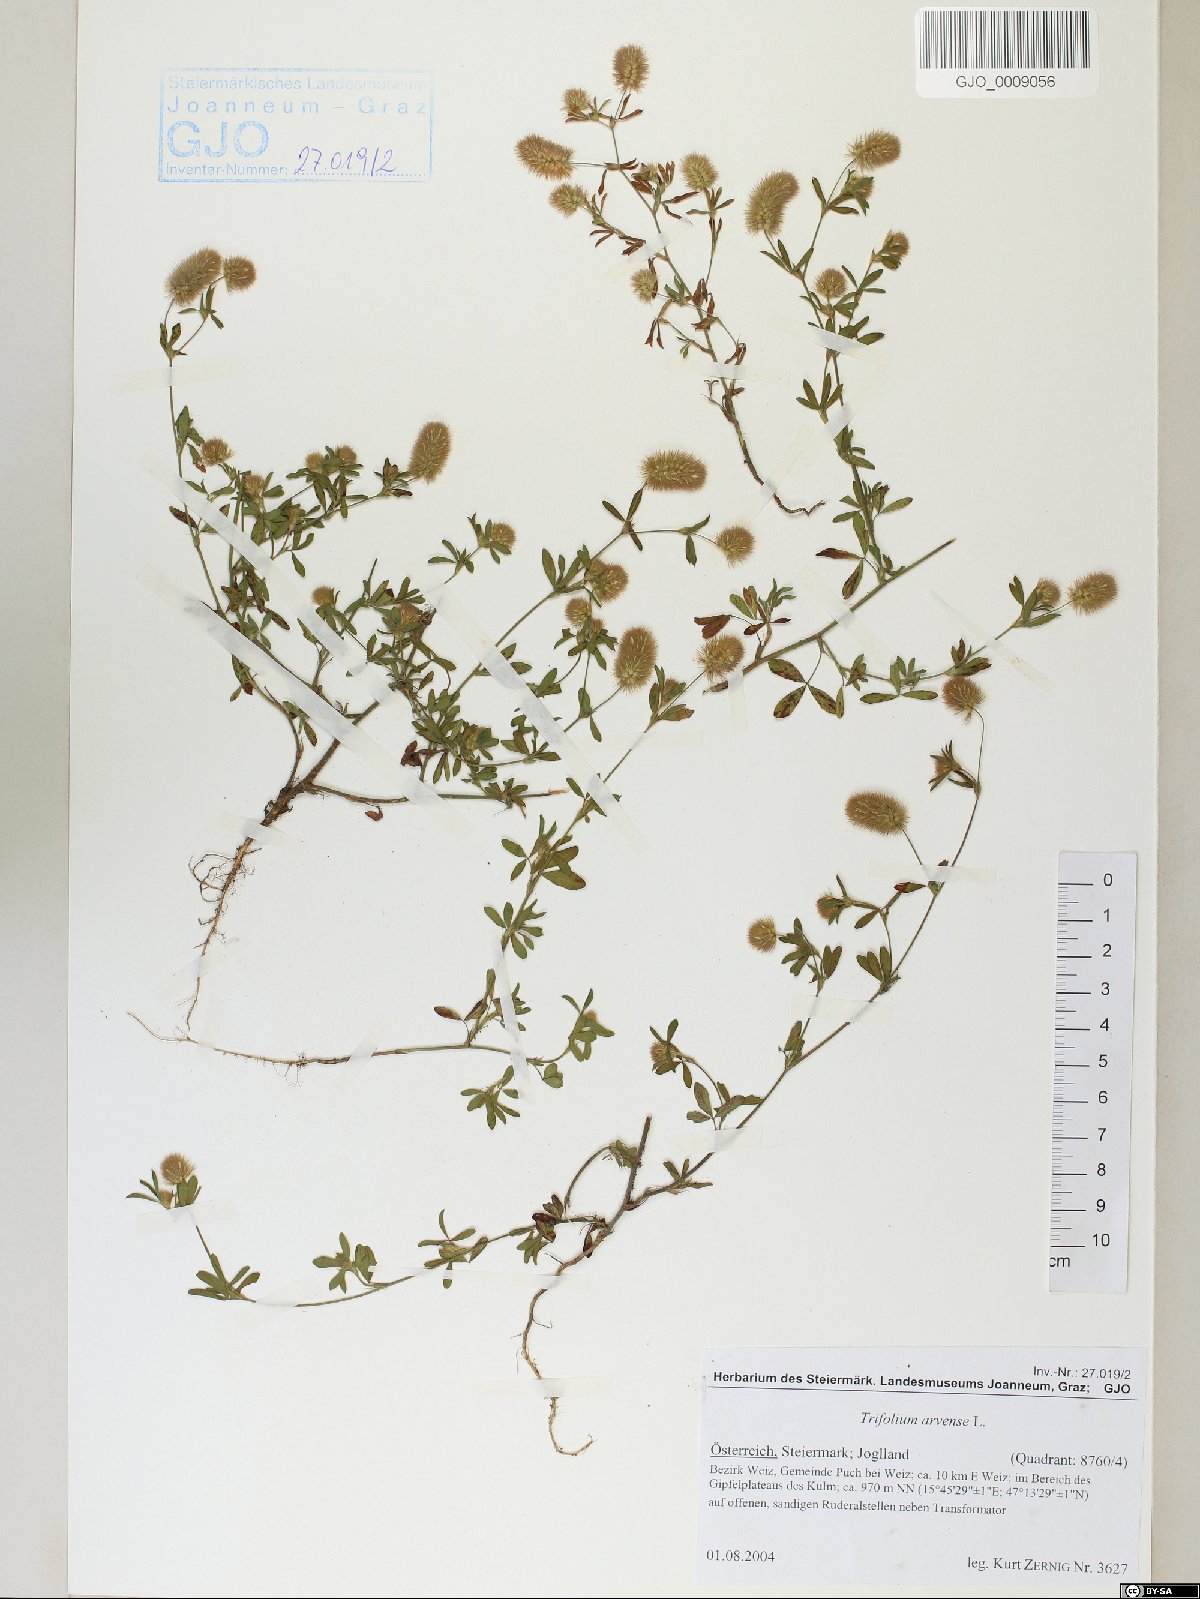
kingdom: Plantae
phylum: Tracheophyta
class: Magnoliopsida
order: Fabales
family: Fabaceae
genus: Trifolium
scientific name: Trifolium arvense
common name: Hare's-foot clover
